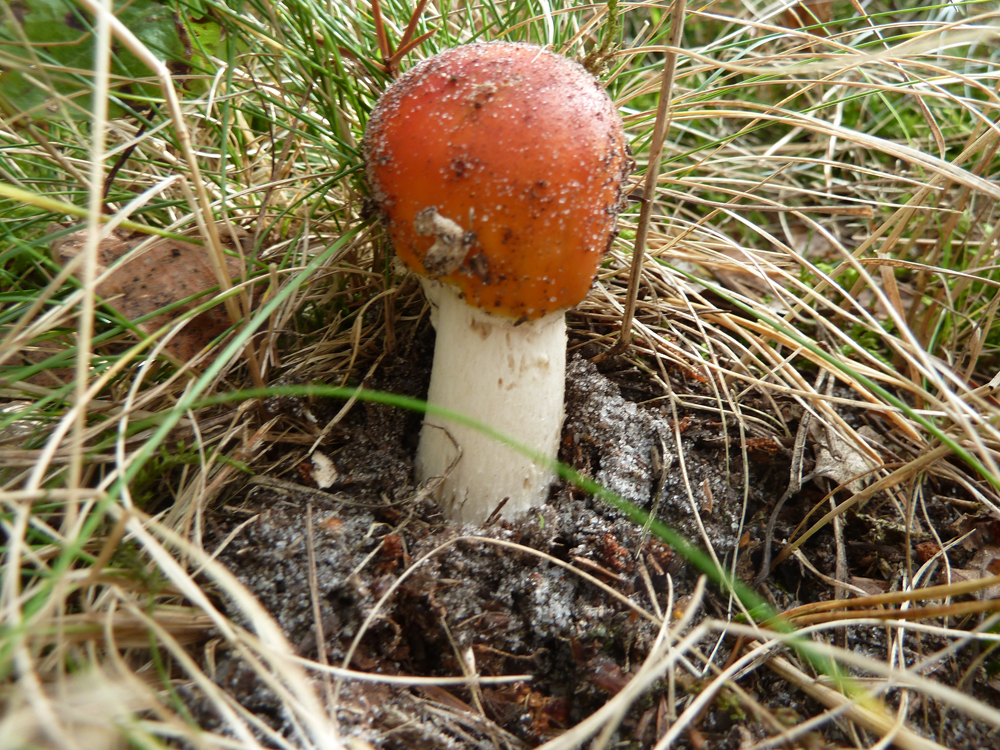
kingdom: Fungi
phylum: Basidiomycota
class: Agaricomycetes
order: Agaricales
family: Amanitaceae
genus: Amanita
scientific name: Amanita muscaria
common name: Fly agaric
